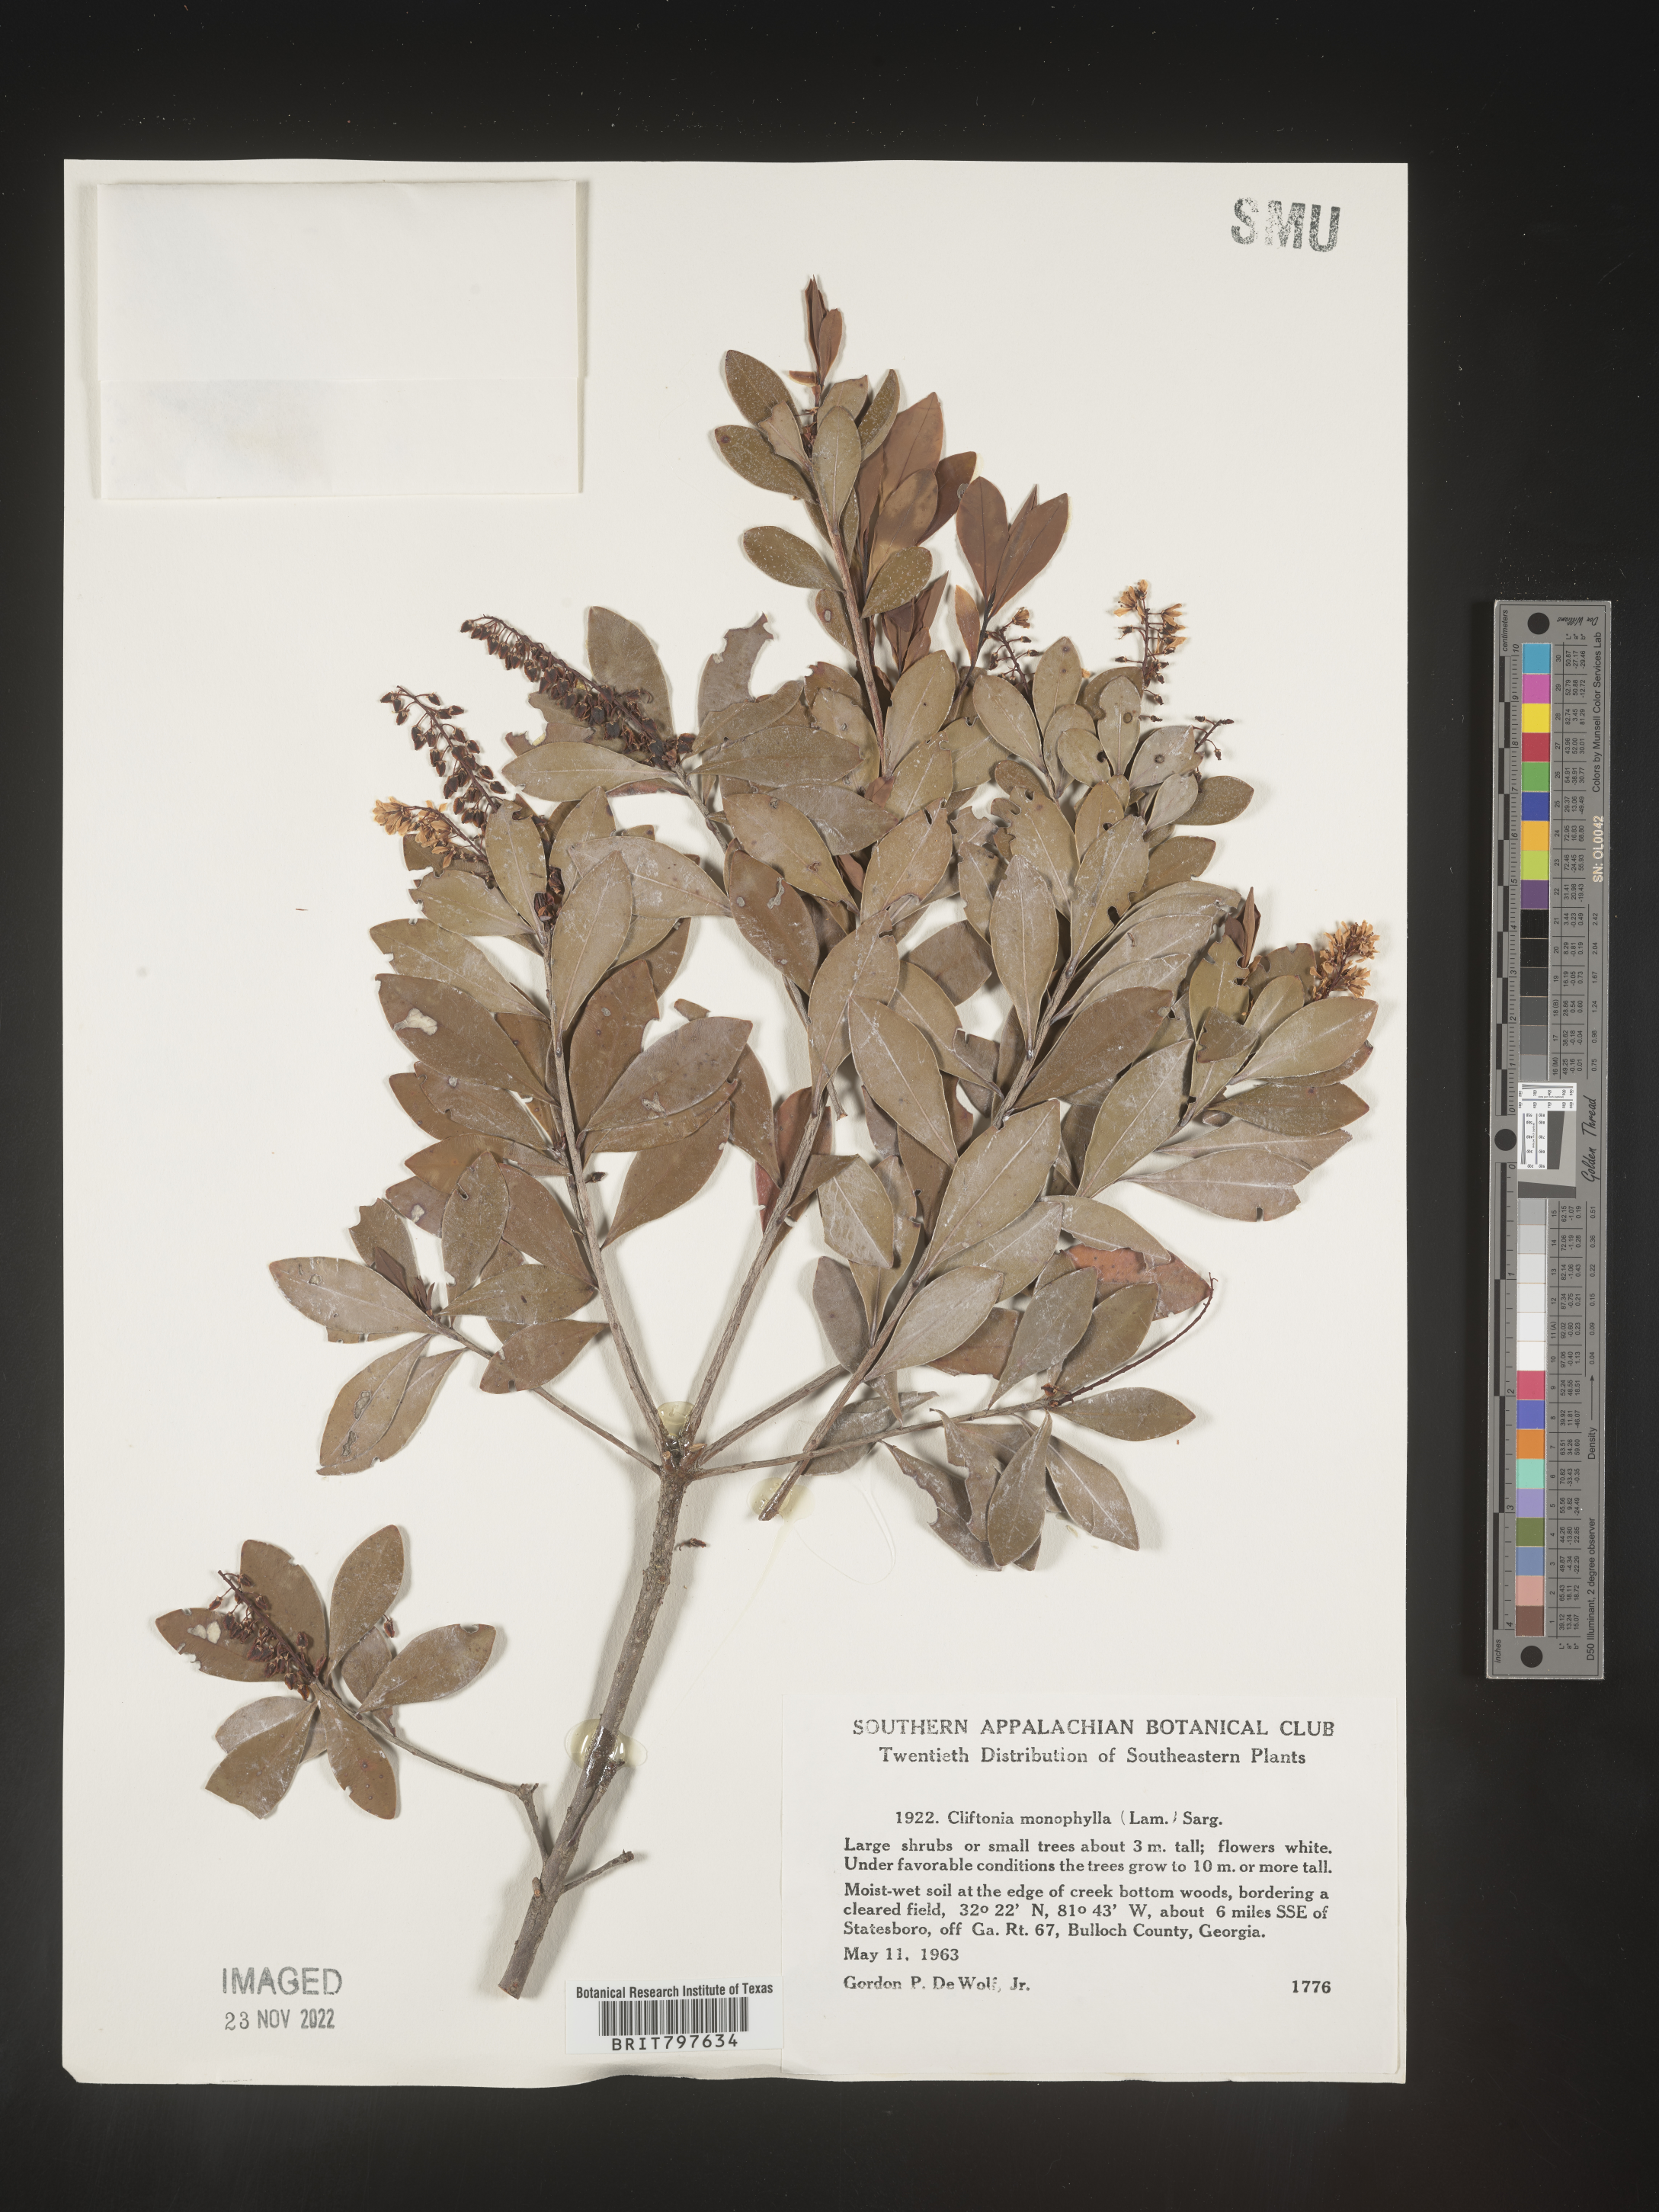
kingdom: Plantae
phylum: Tracheophyta
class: Magnoliopsida
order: Ericales
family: Cyrillaceae
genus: Cliftonia
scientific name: Cliftonia monophylla
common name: Titi
